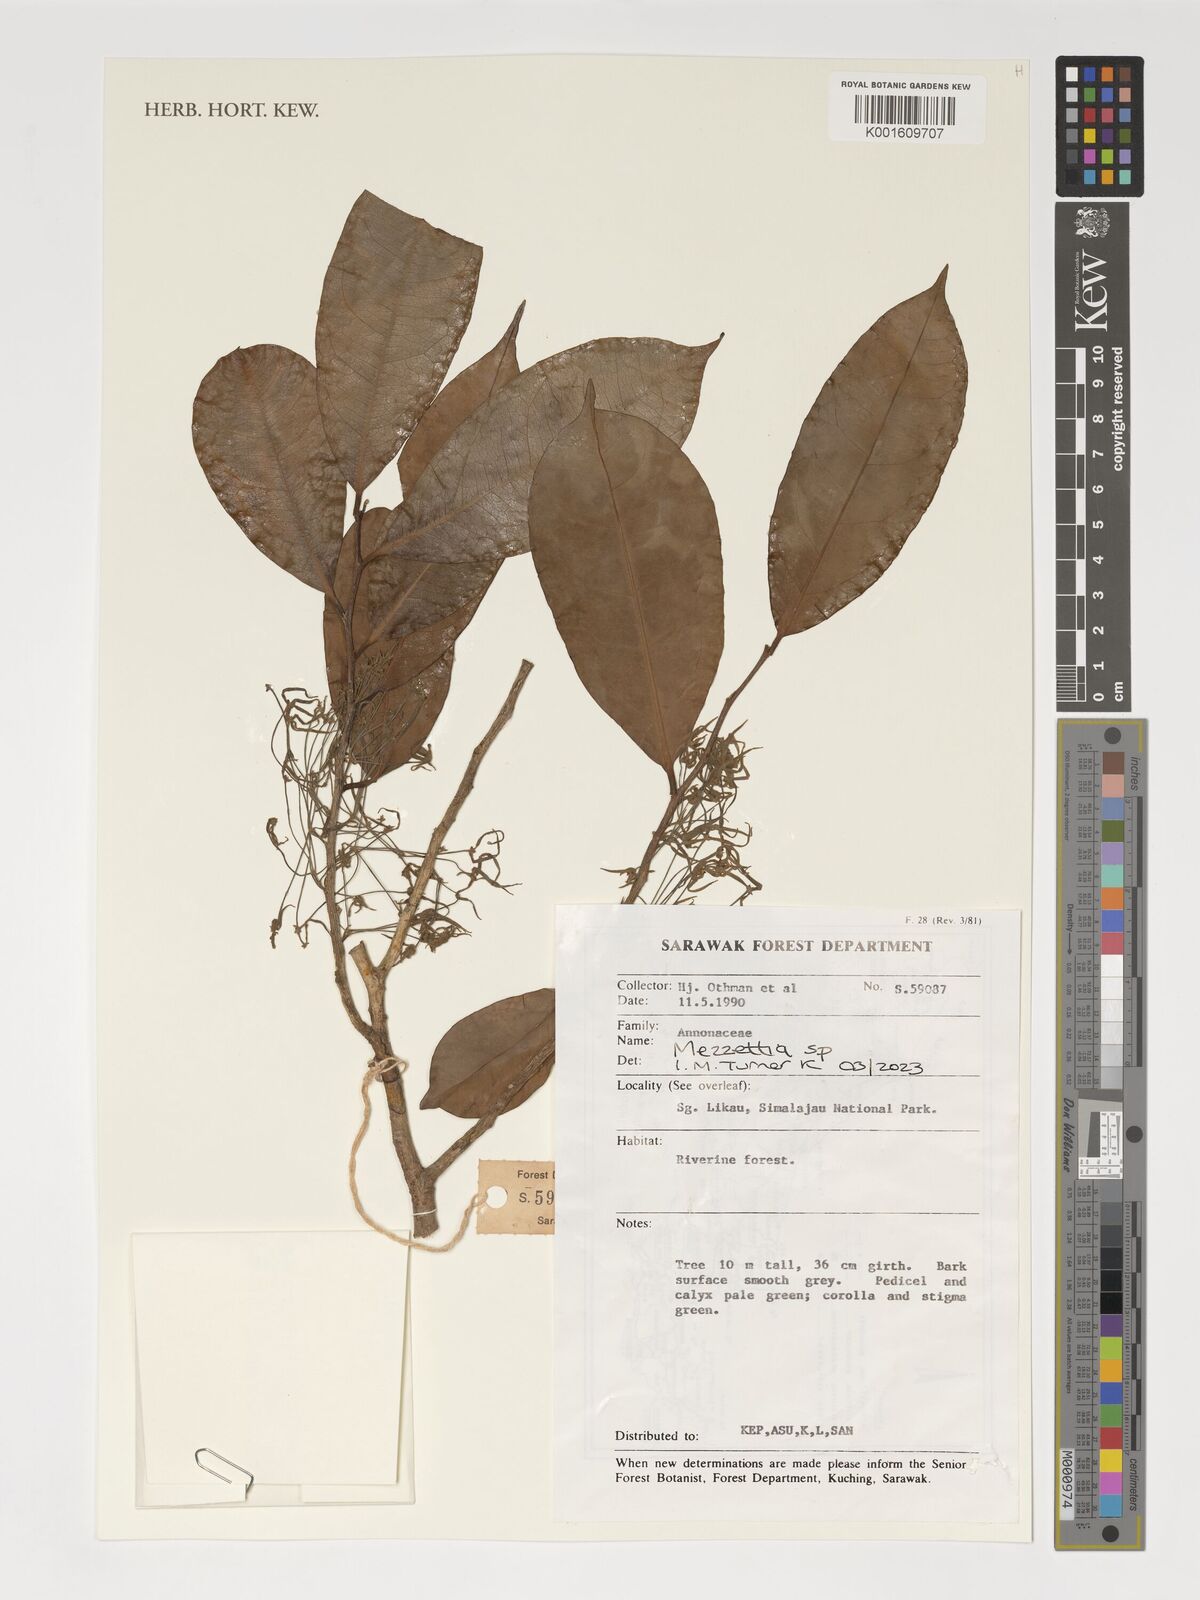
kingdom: Plantae
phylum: Tracheophyta
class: Magnoliopsida
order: Magnoliales
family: Annonaceae
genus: Mezzettia
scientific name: Mezzettia
